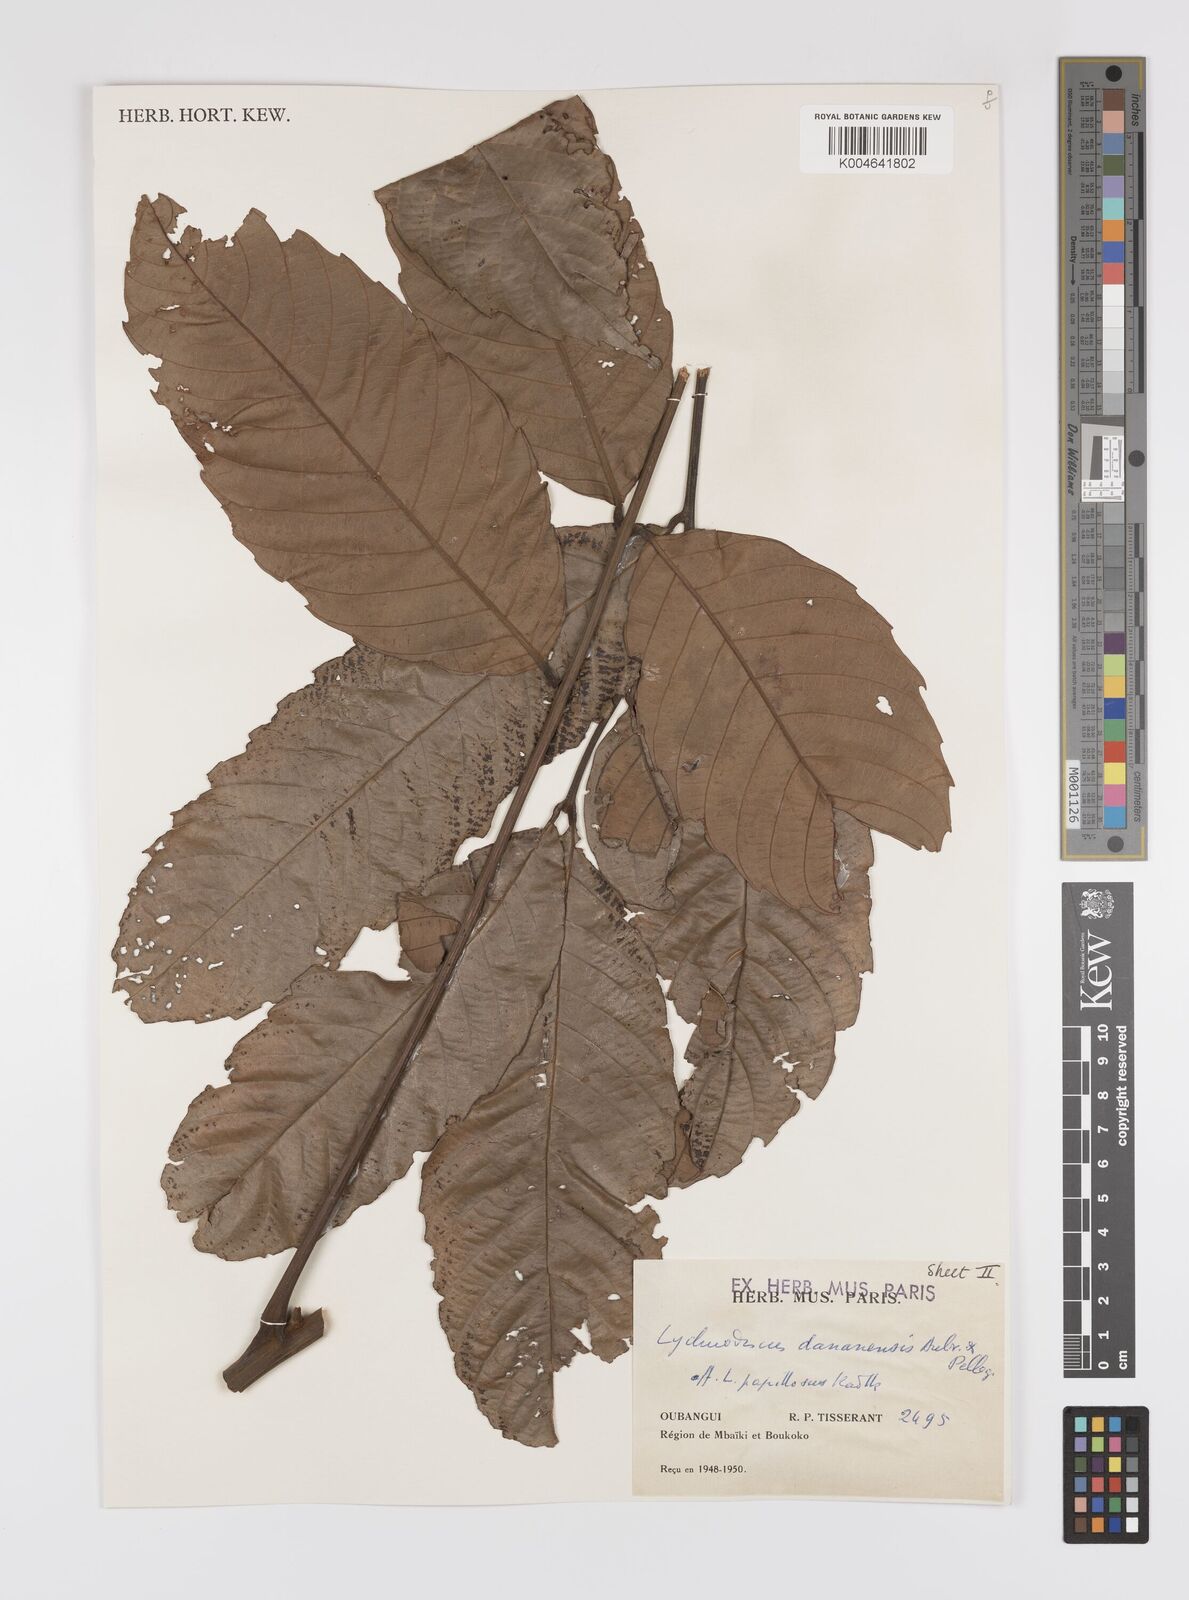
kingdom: Plantae
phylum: Tracheophyta
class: Magnoliopsida
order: Sapindales
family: Sapindaceae
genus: Lychnodiscus
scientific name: Lychnodiscus dananensis
